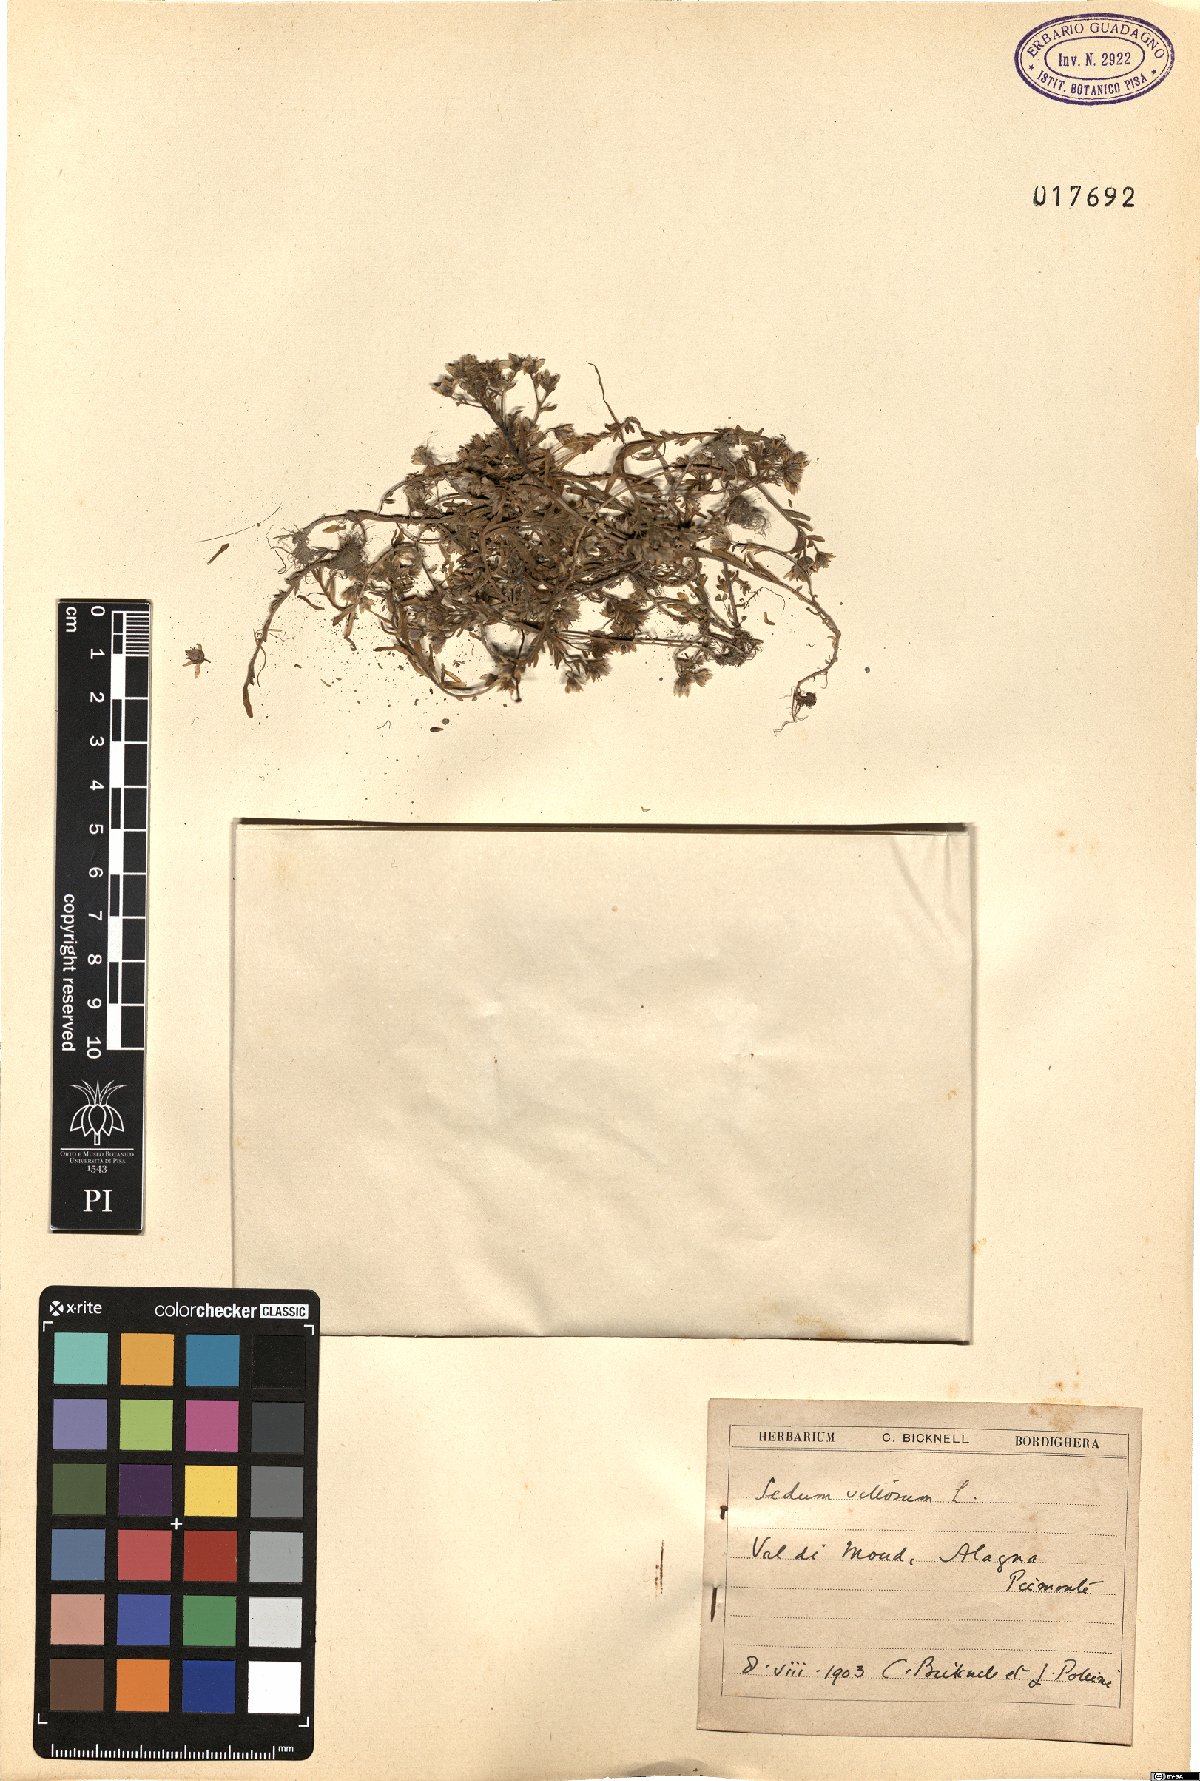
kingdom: Plantae
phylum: Tracheophyta
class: Magnoliopsida
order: Saxifragales
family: Crassulaceae
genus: Sedum
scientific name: Sedum villosum
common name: Hairy stonecrop
